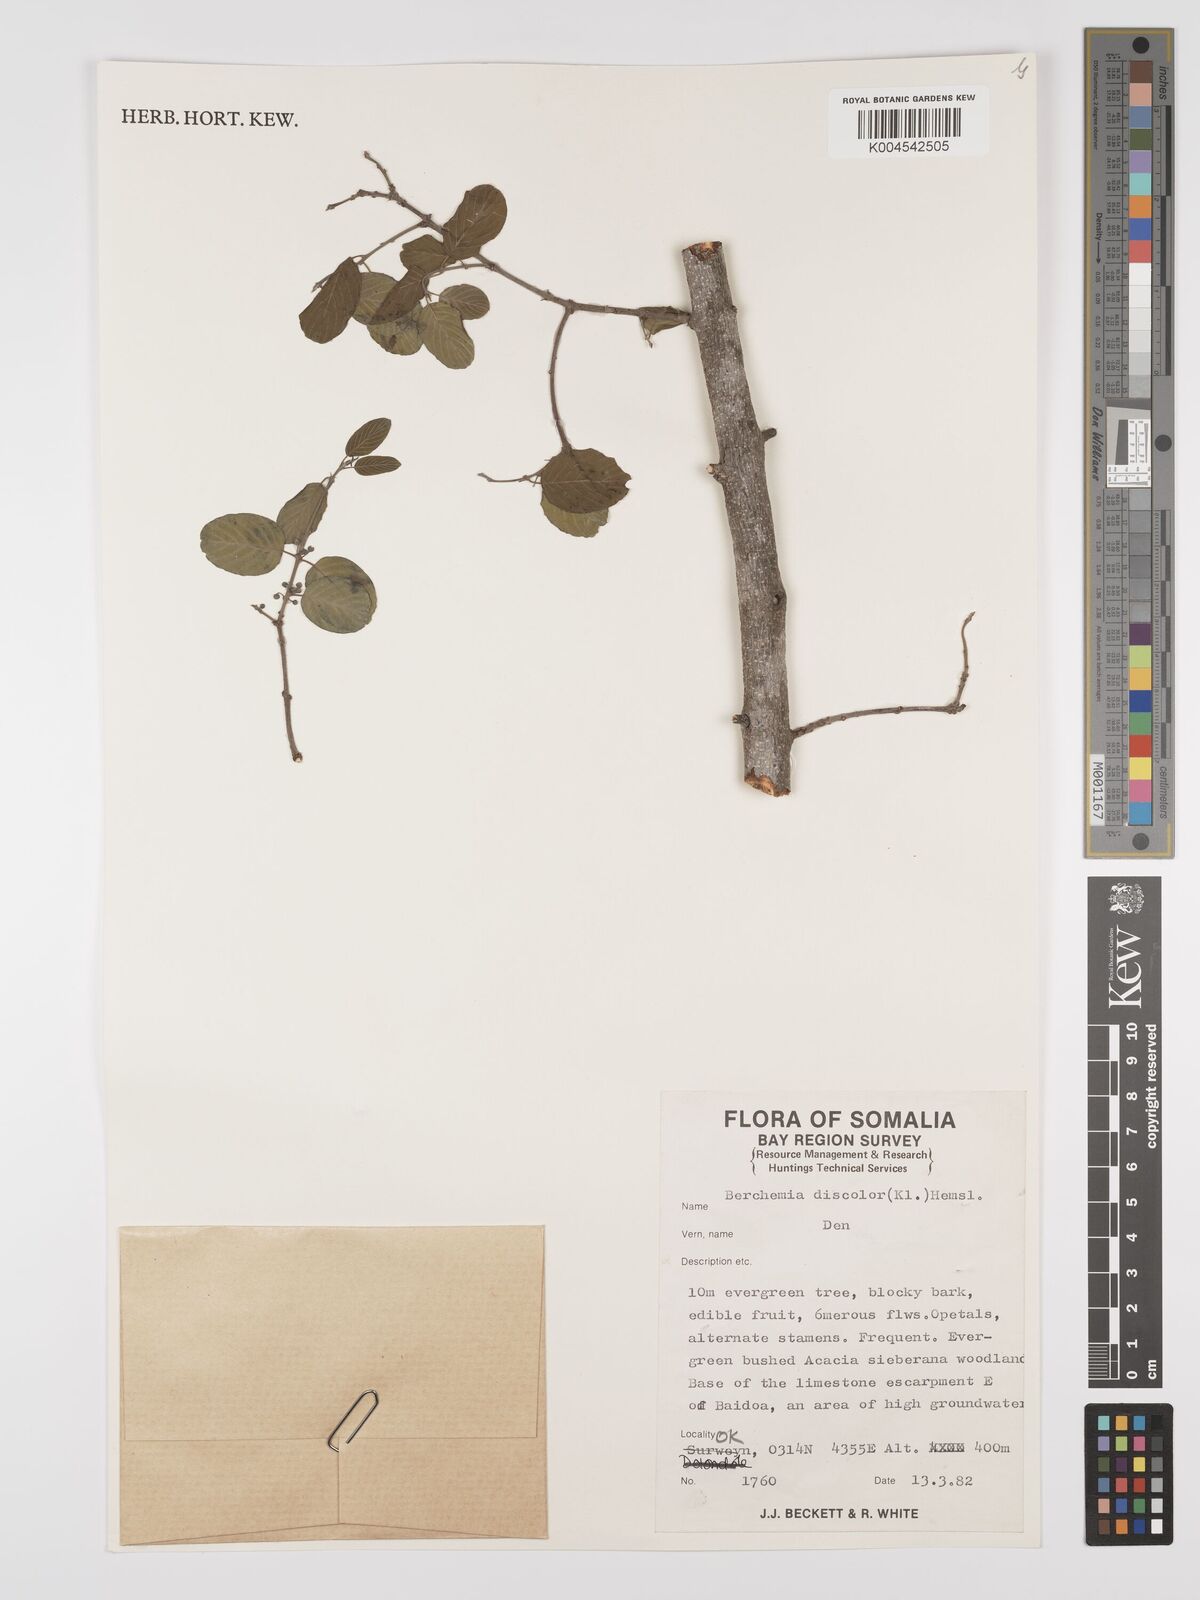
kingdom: Plantae
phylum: Tracheophyta
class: Magnoliopsida
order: Rosales
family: Rhamnaceae
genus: Phyllogeiton
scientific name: Phyllogeiton discolor
